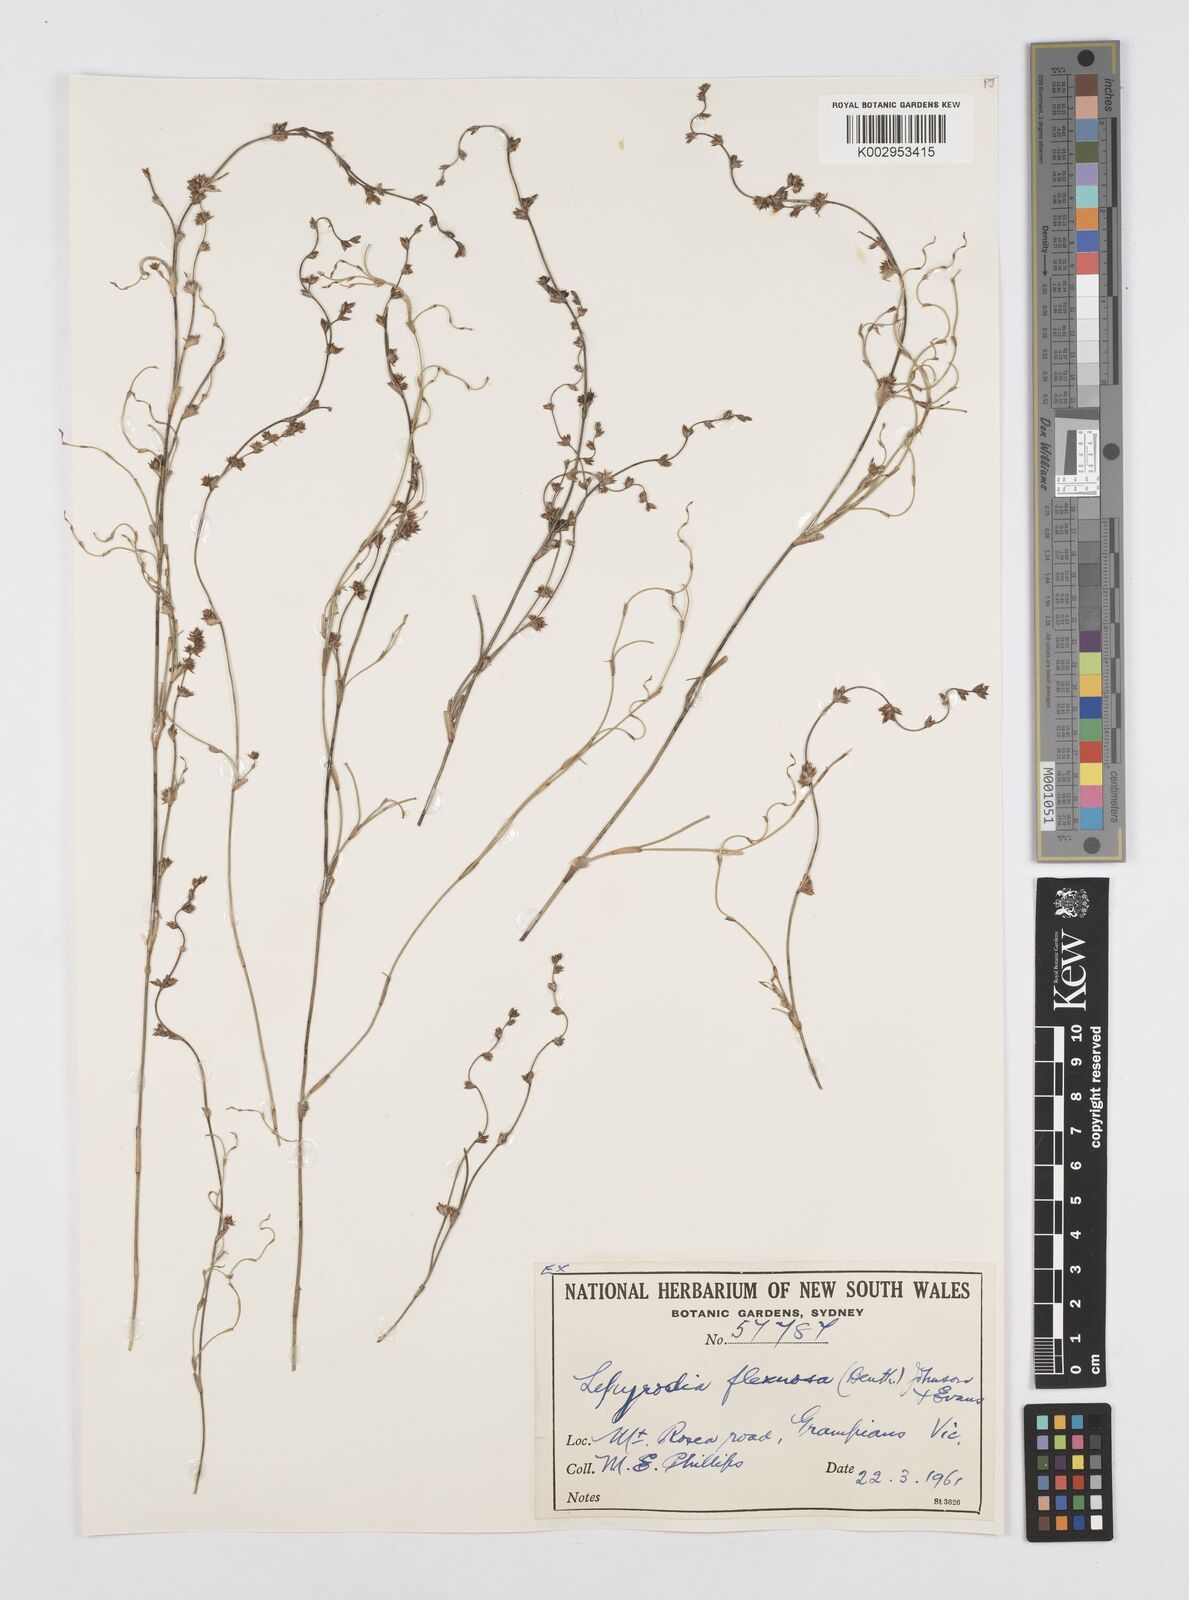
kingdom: Plantae
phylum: Tracheophyta
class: Liliopsida
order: Poales
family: Restionaceae
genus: Lepyrodia
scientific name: Lepyrodia flexuosa
